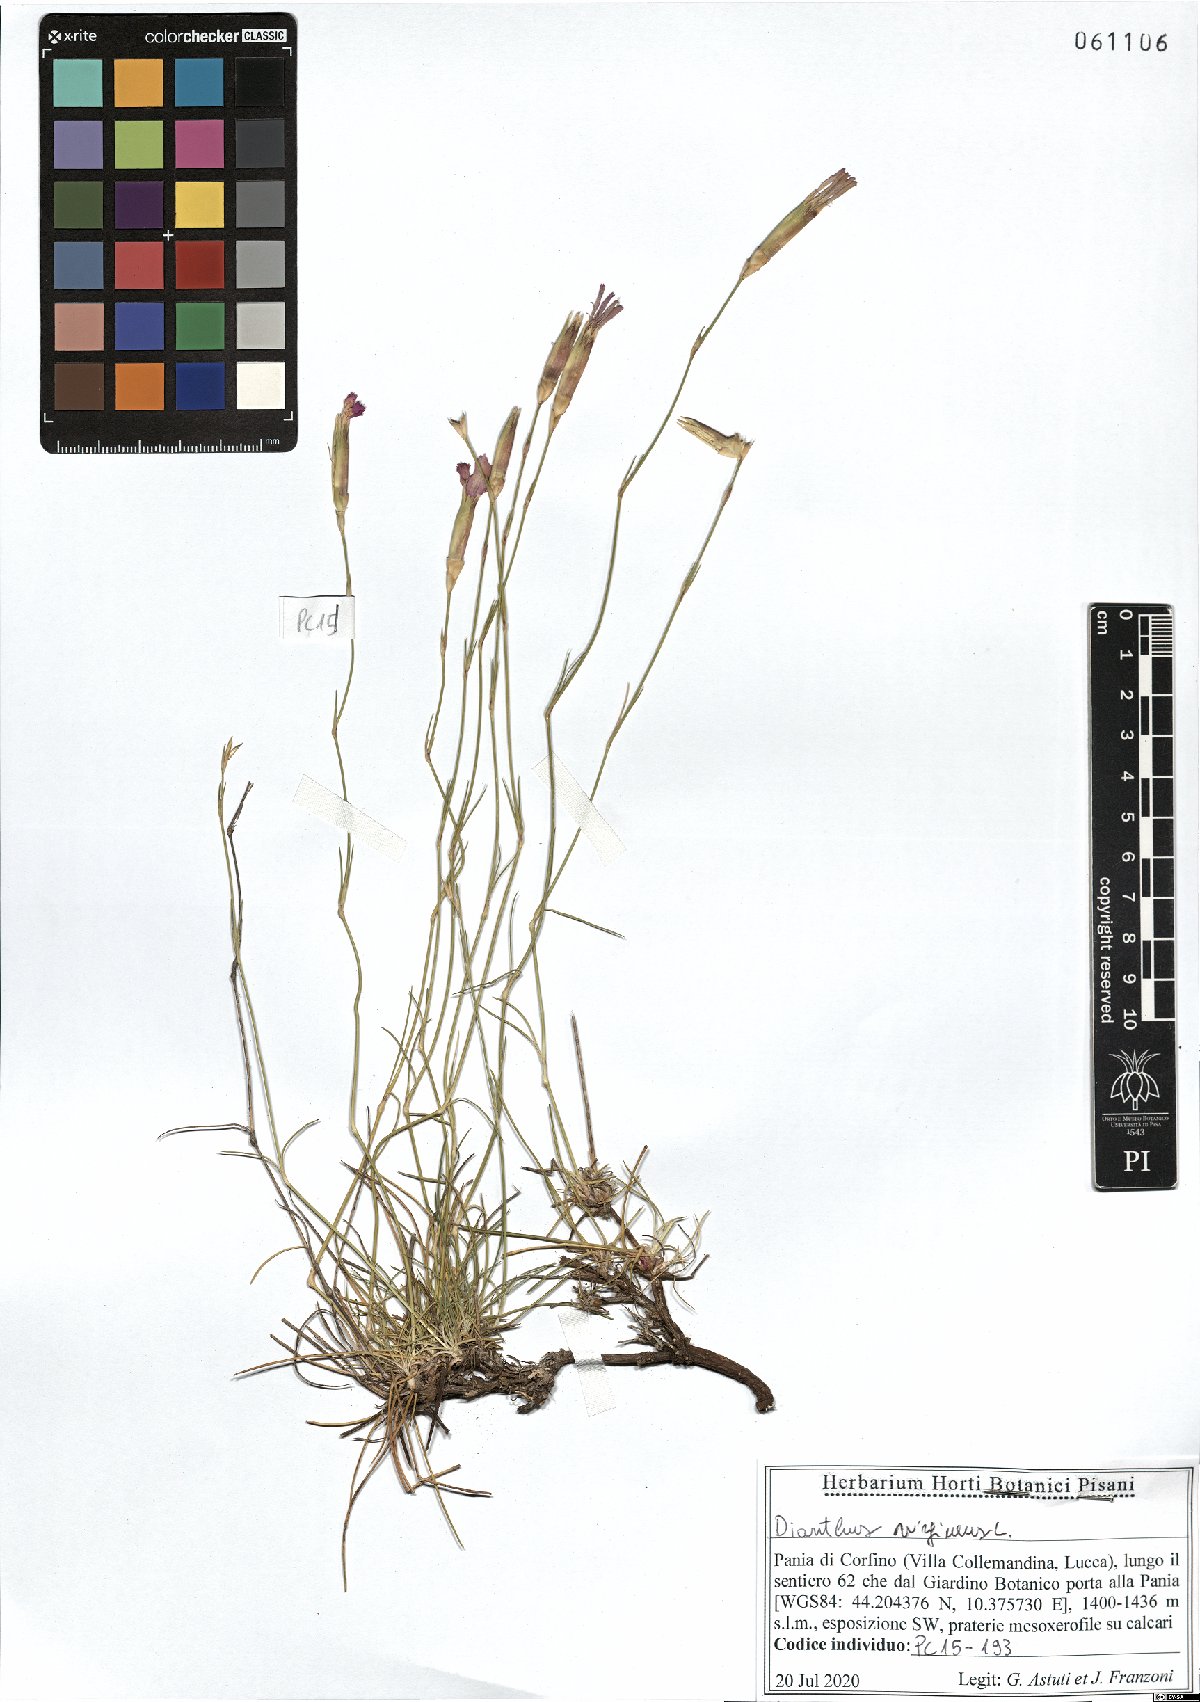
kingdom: Plantae
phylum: Tracheophyta
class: Magnoliopsida
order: Caryophyllales
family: Caryophyllaceae
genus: Dianthus
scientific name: Dianthus virgineus
